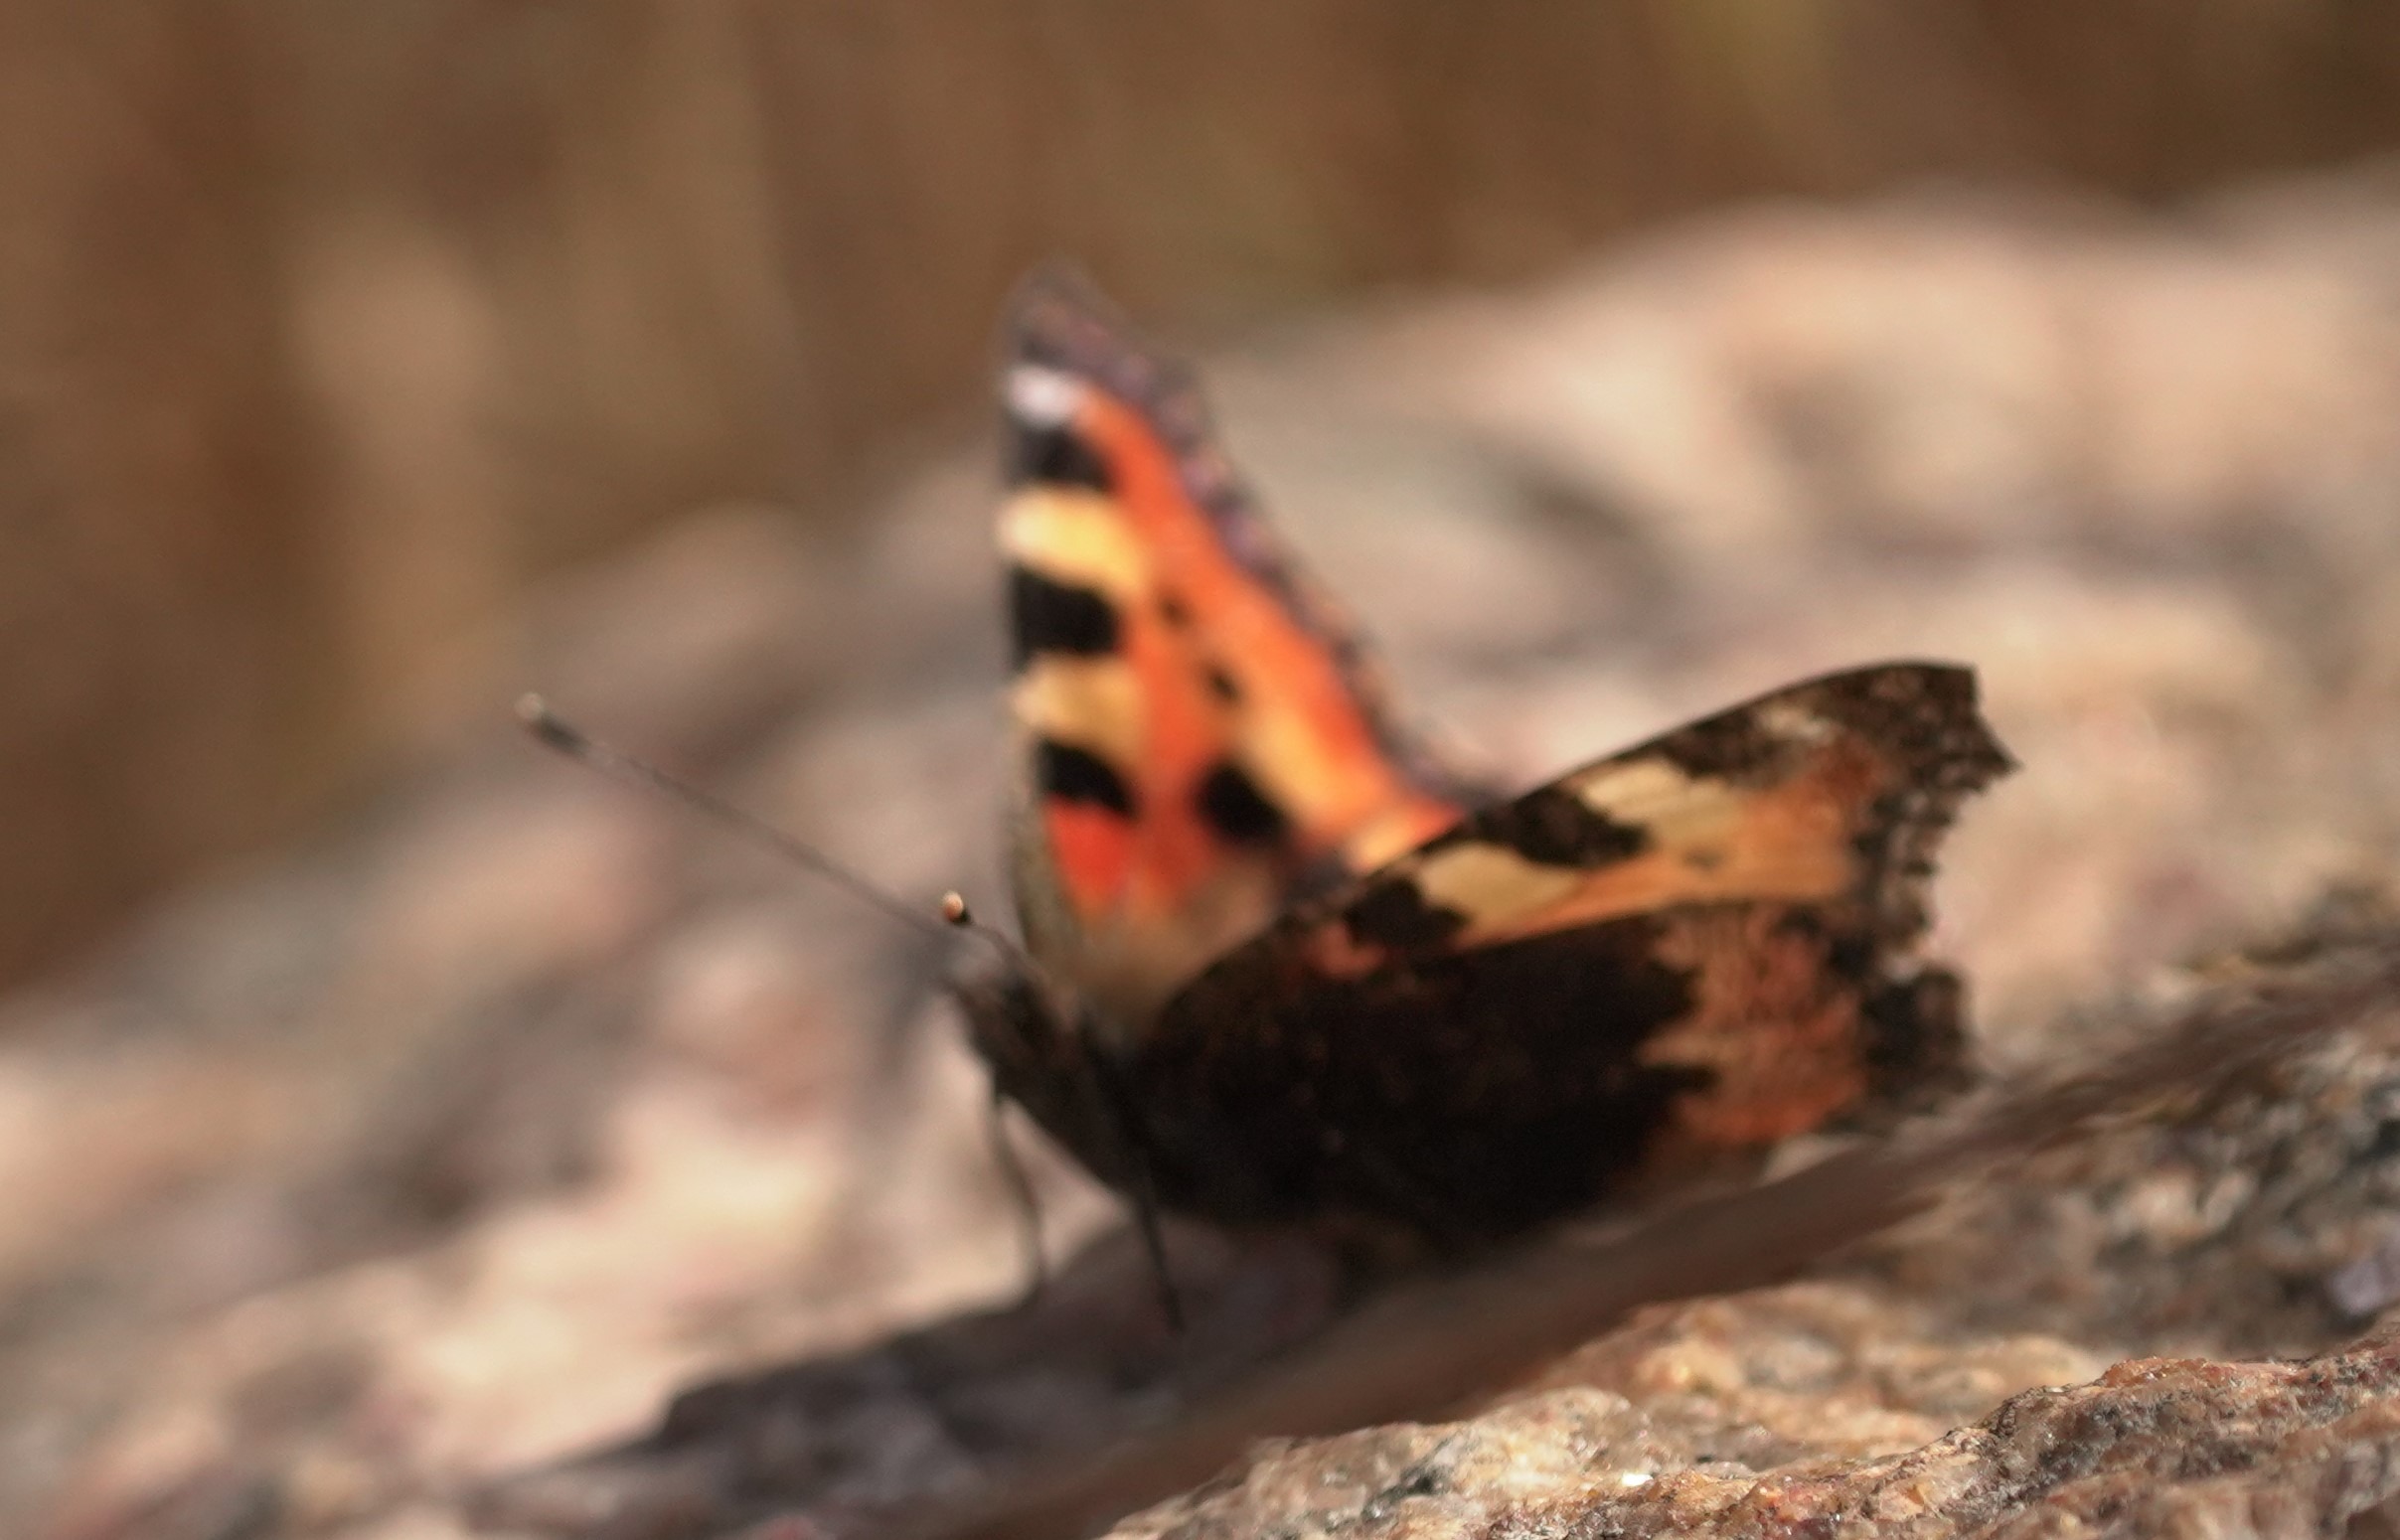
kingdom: Animalia
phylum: Arthropoda
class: Insecta
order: Lepidoptera
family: Nymphalidae
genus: Aglais
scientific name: Aglais urticae
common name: Nældens takvinge
